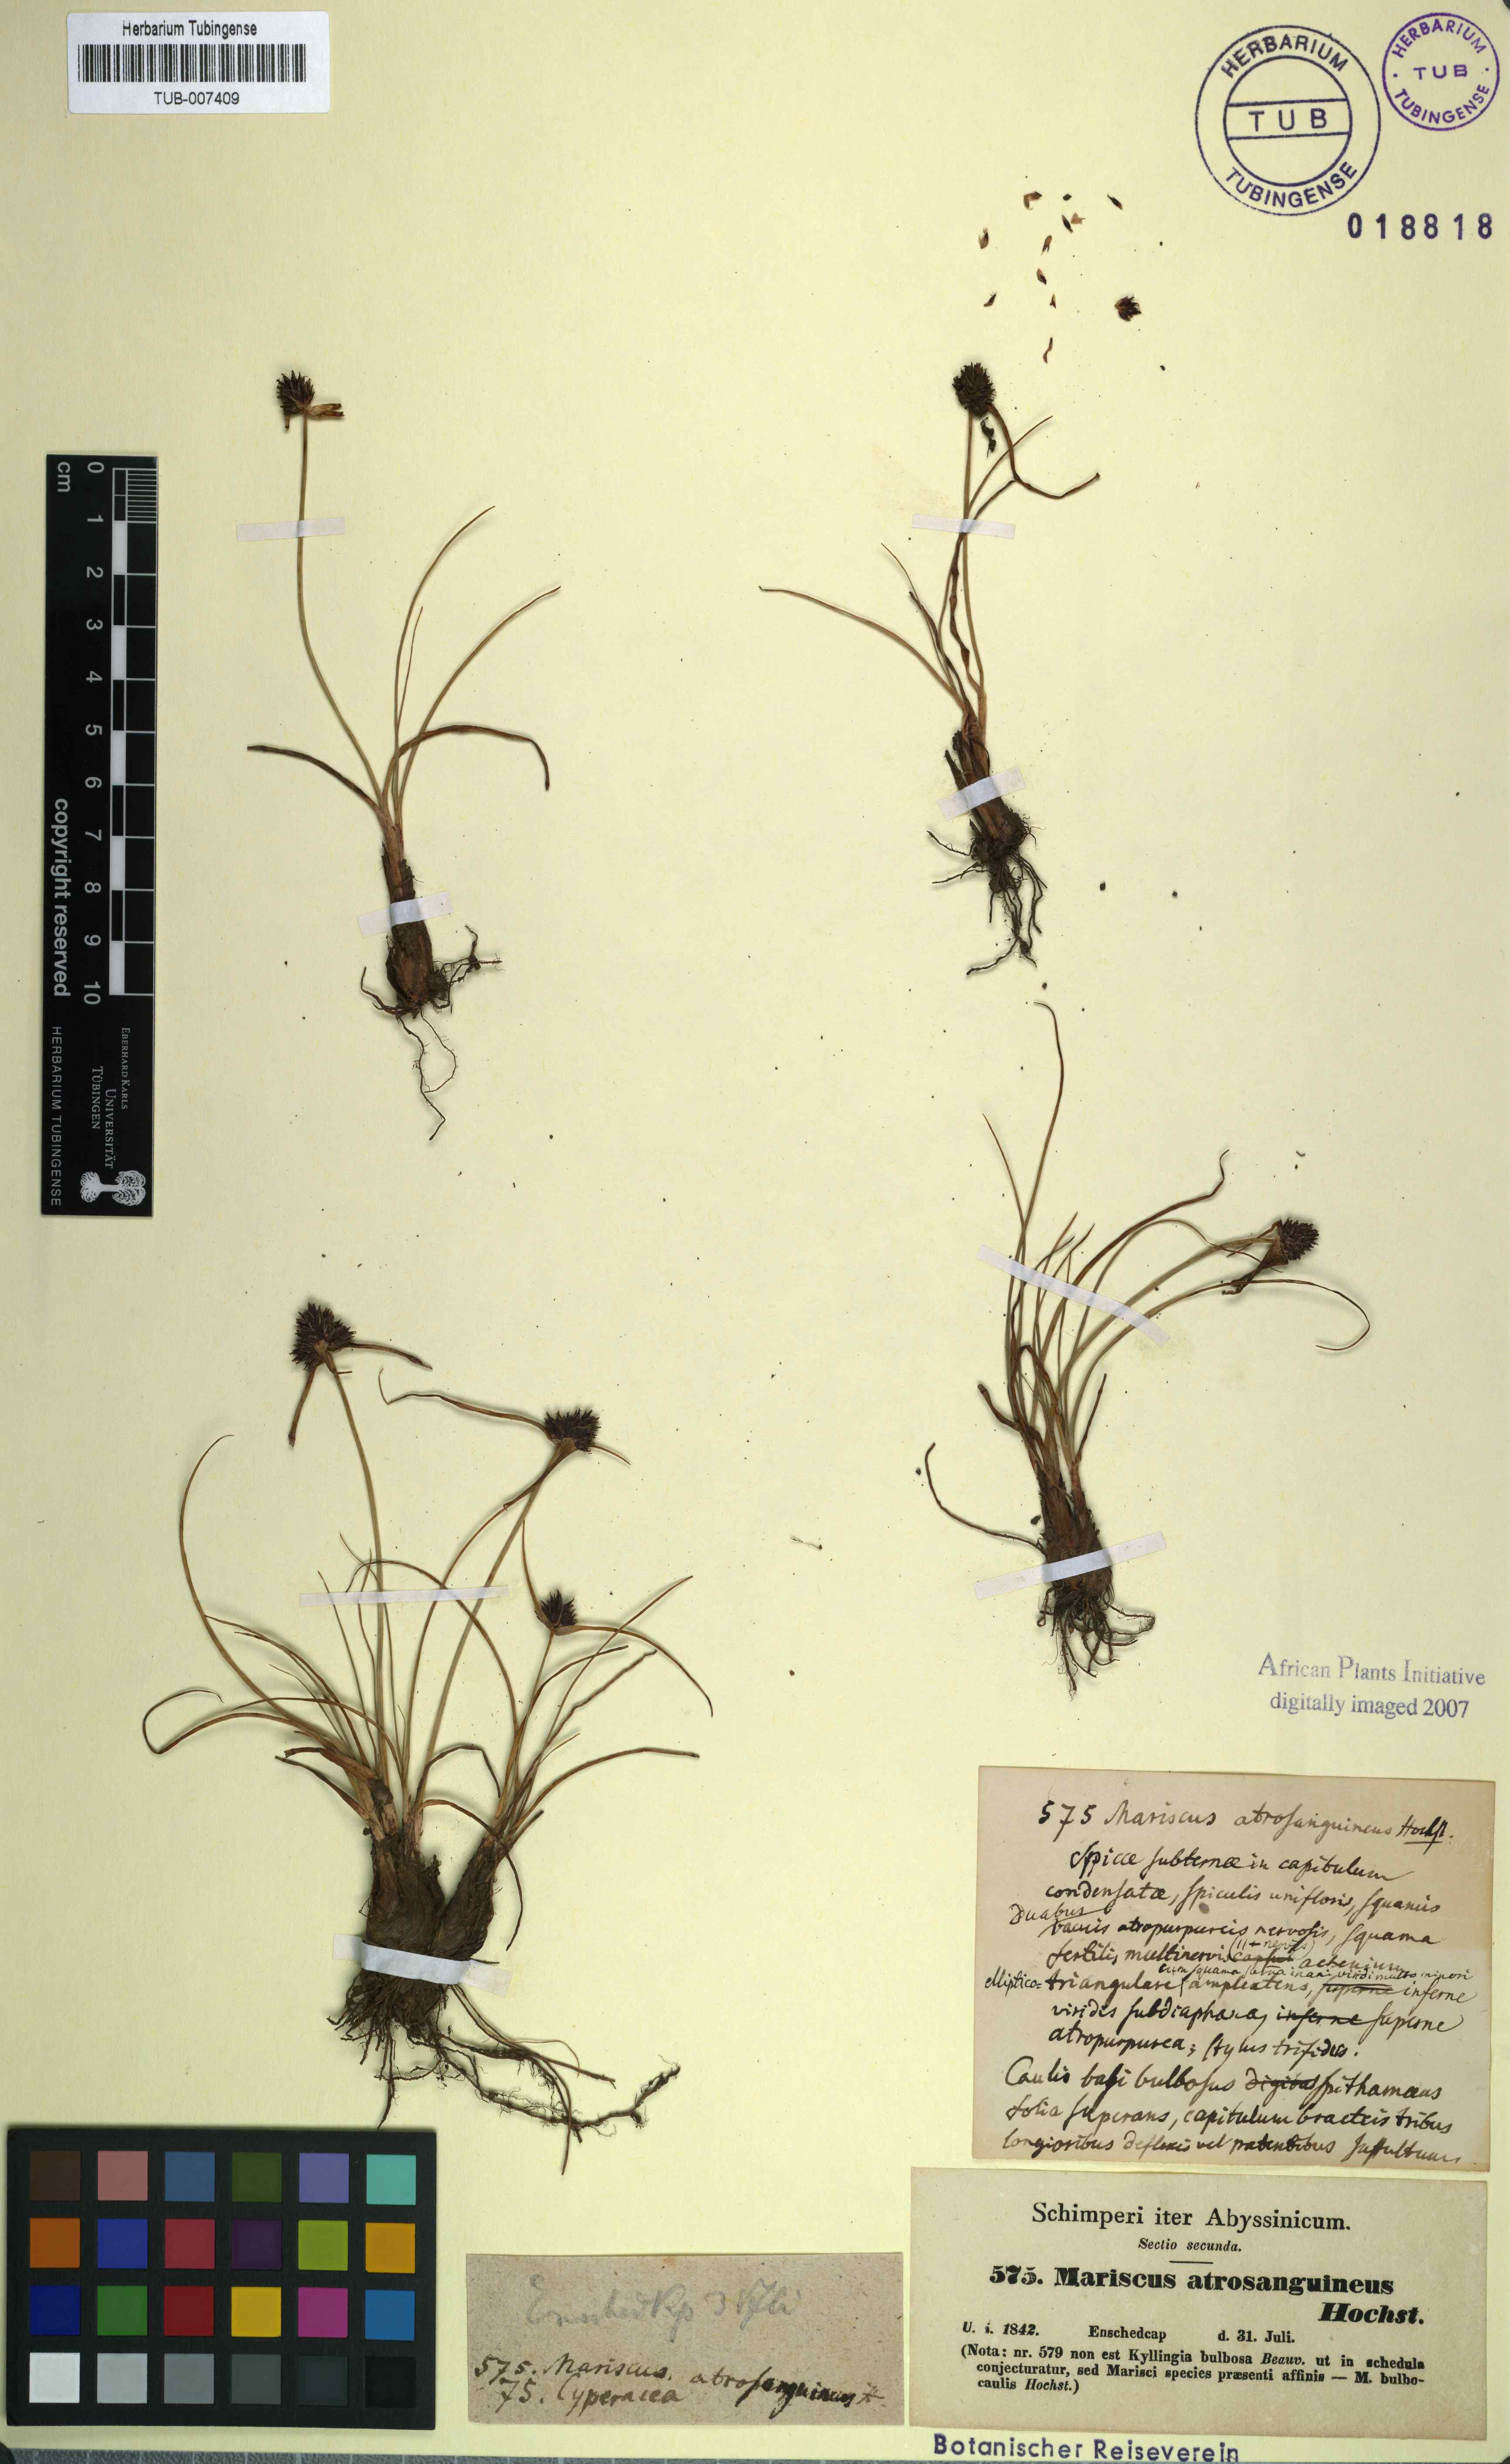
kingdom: Plantae
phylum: Tracheophyta
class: Liliopsida
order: Poales
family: Cyperaceae
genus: Cladium
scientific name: Cladium Mariscus bulbocaulis
